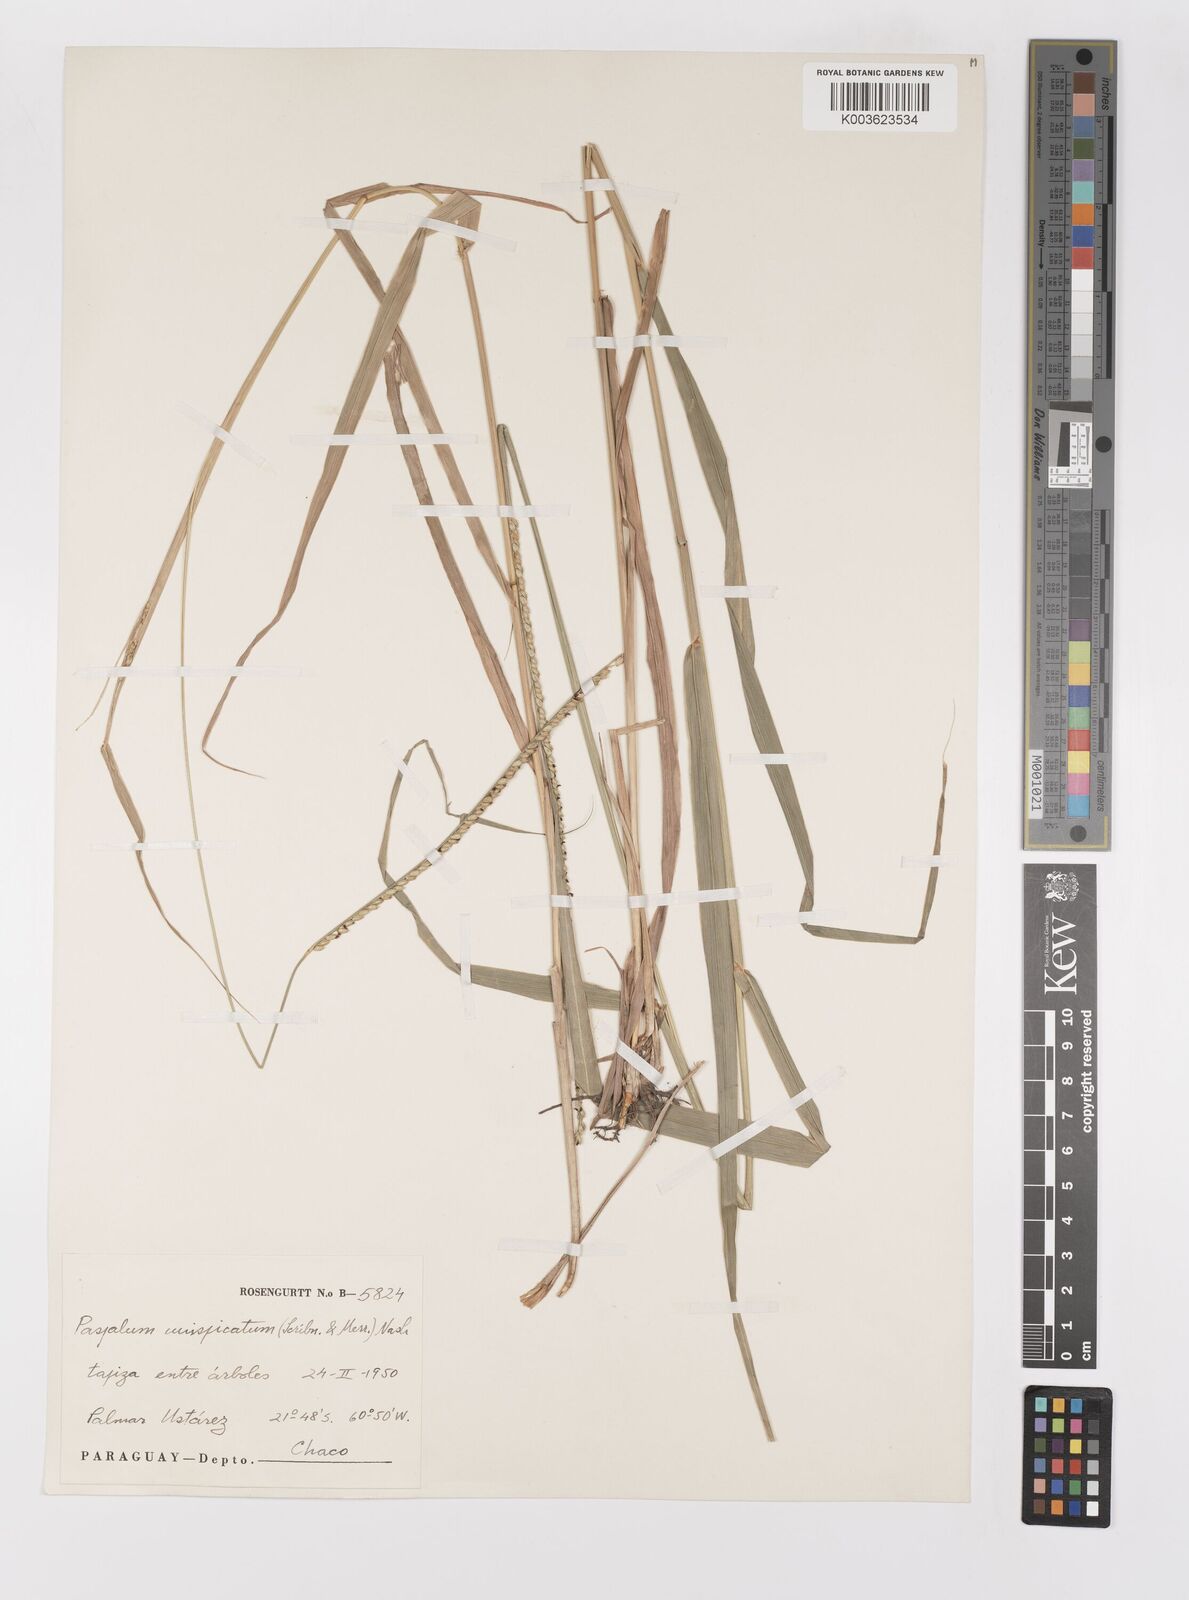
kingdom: Plantae
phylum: Tracheophyta
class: Liliopsida
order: Poales
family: Poaceae
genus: Paspalum
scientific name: Paspalum candidum
